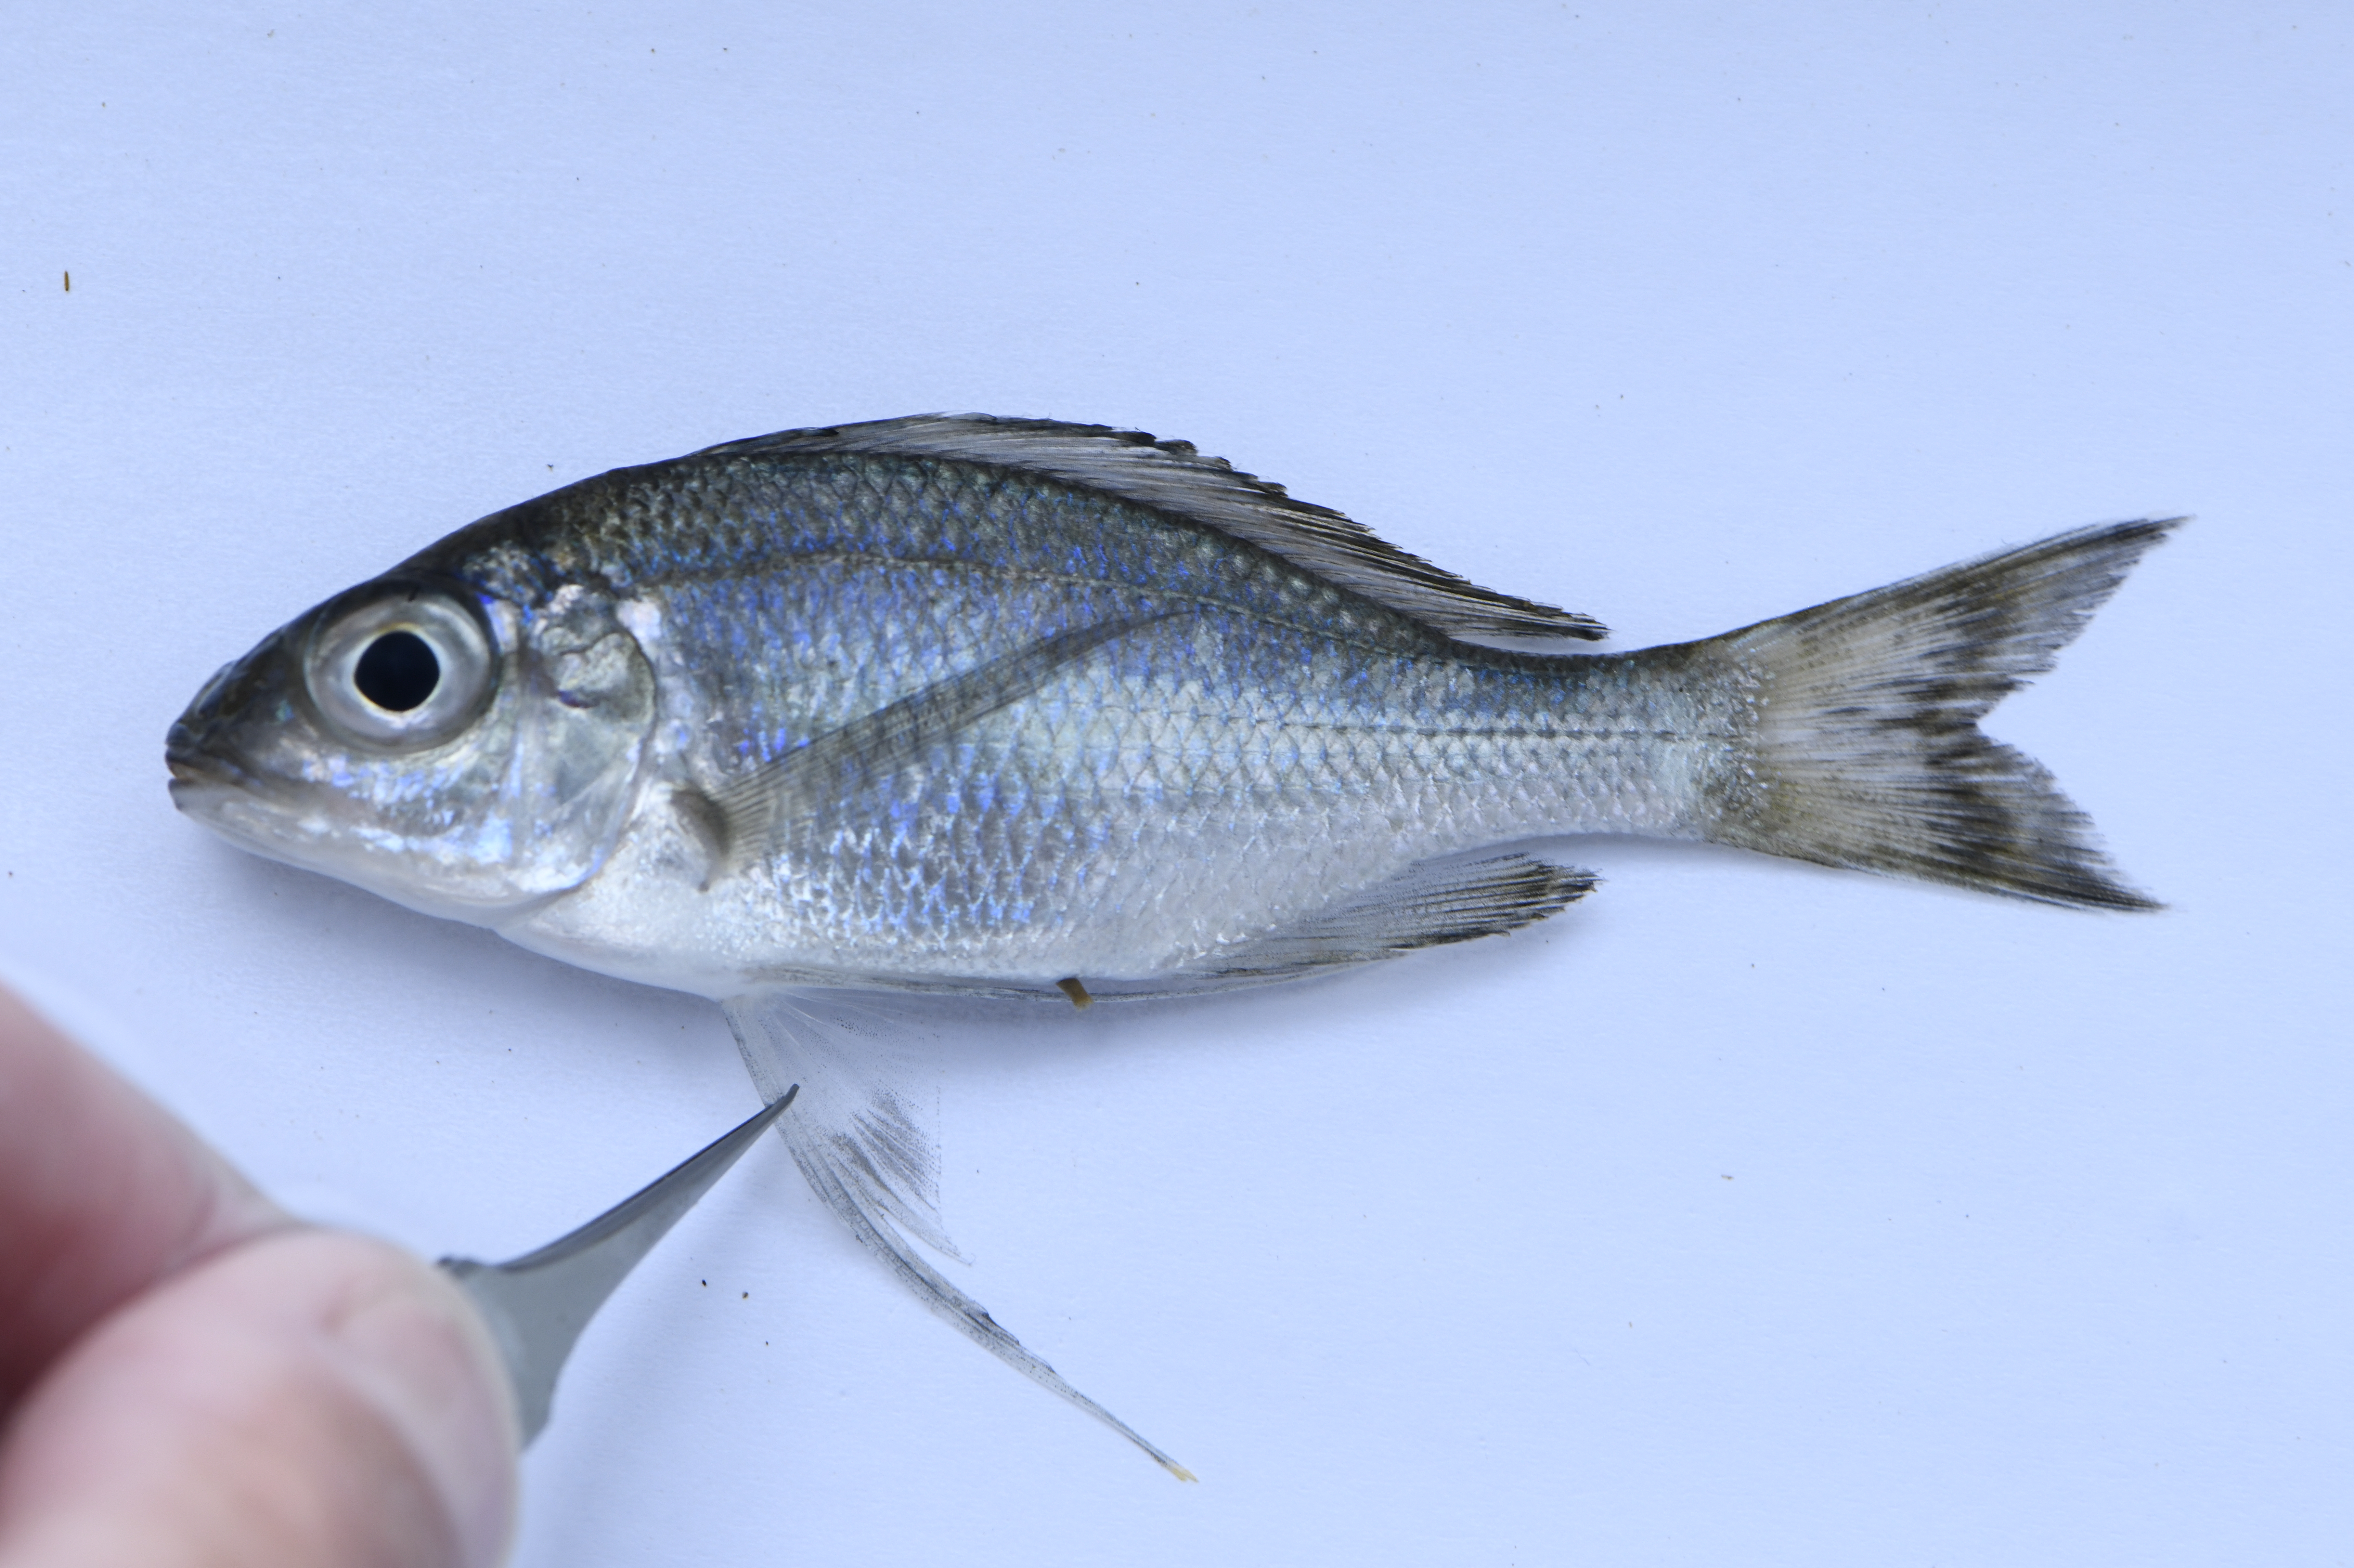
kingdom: Animalia
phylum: Chordata
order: Perciformes
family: Cichlidae
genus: Ophthalmotilapia
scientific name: Ophthalmotilapia ventralis
